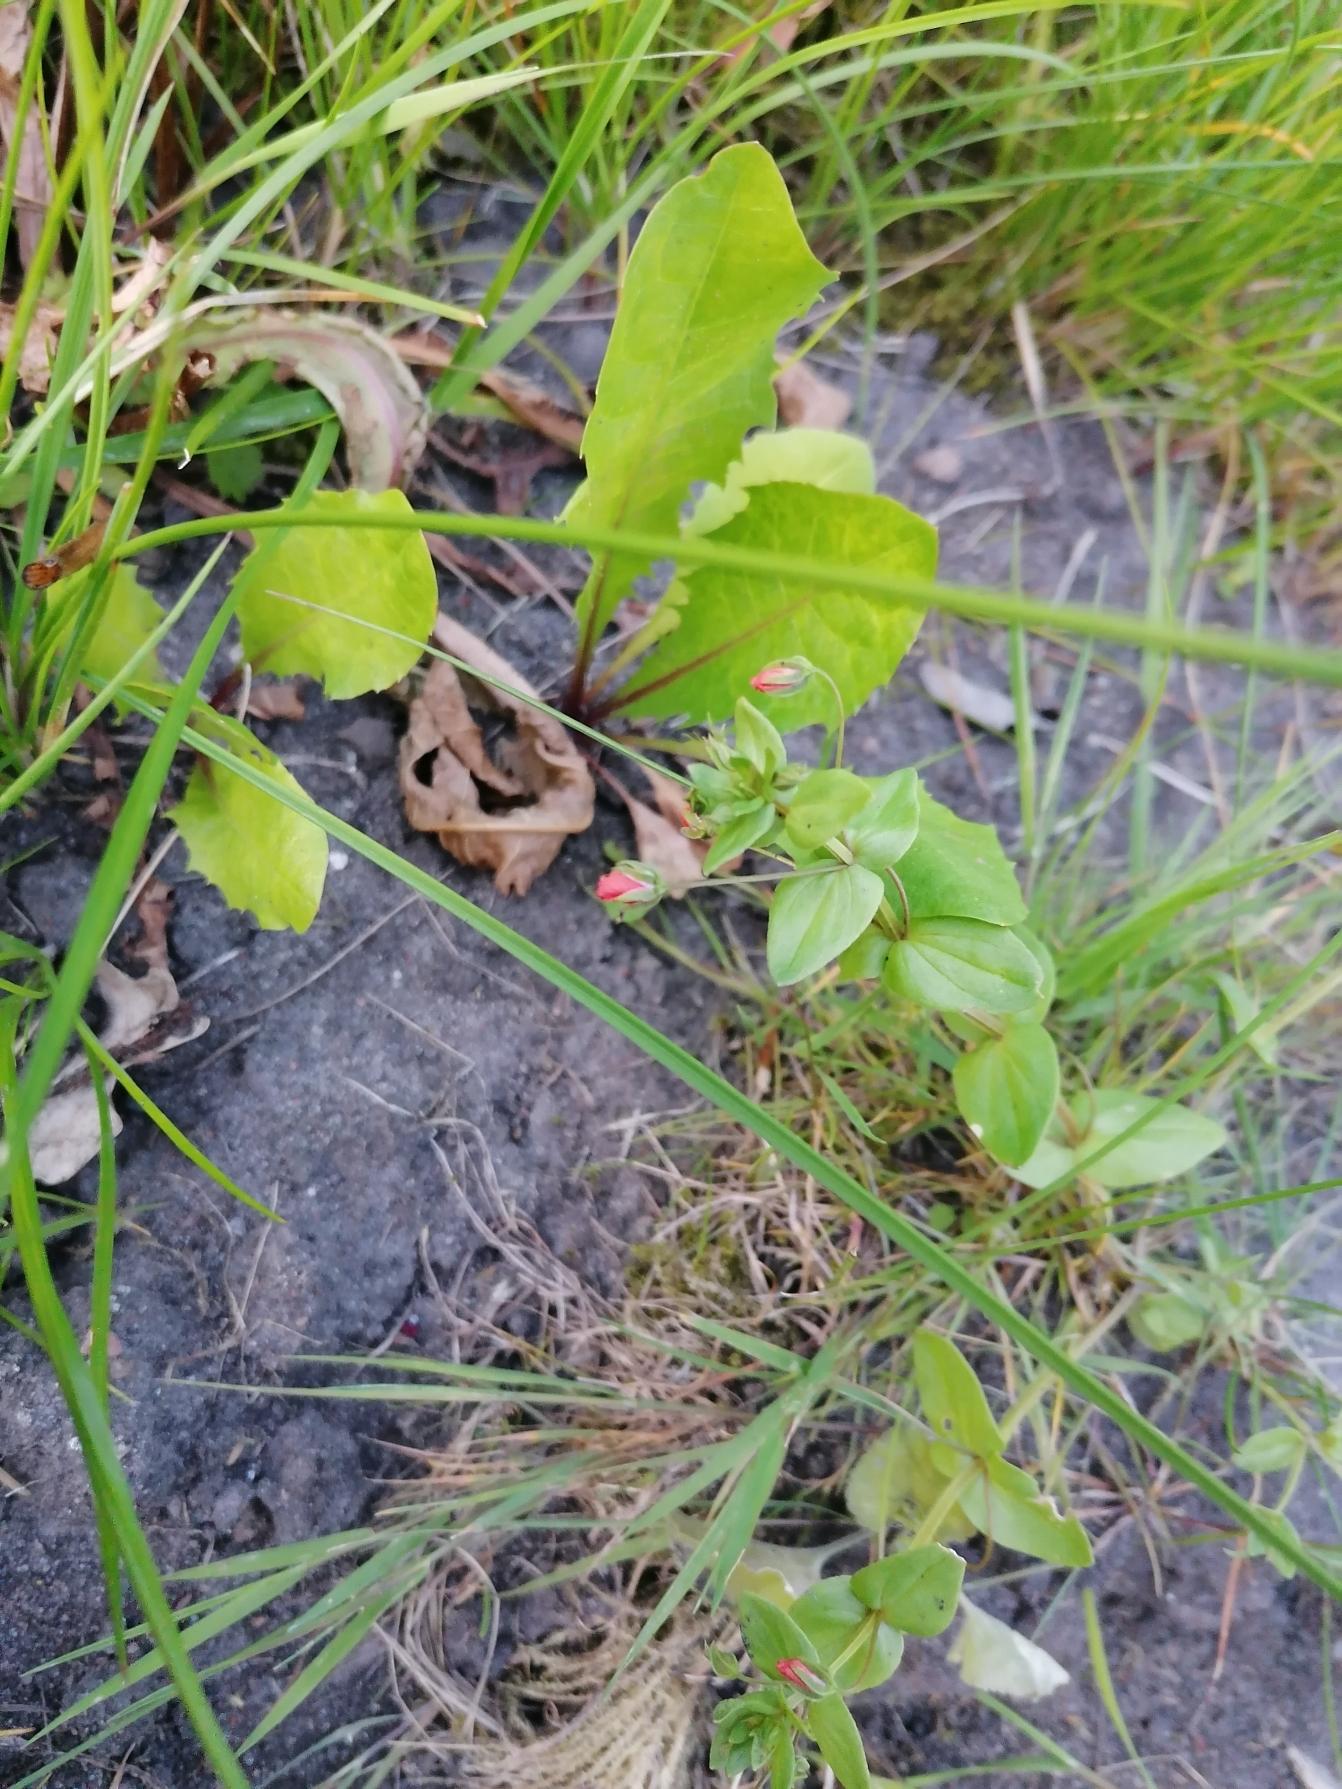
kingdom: Plantae
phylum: Tracheophyta
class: Magnoliopsida
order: Ericales
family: Primulaceae
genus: Lysimachia
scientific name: Lysimachia arvensis
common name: Rød arve
